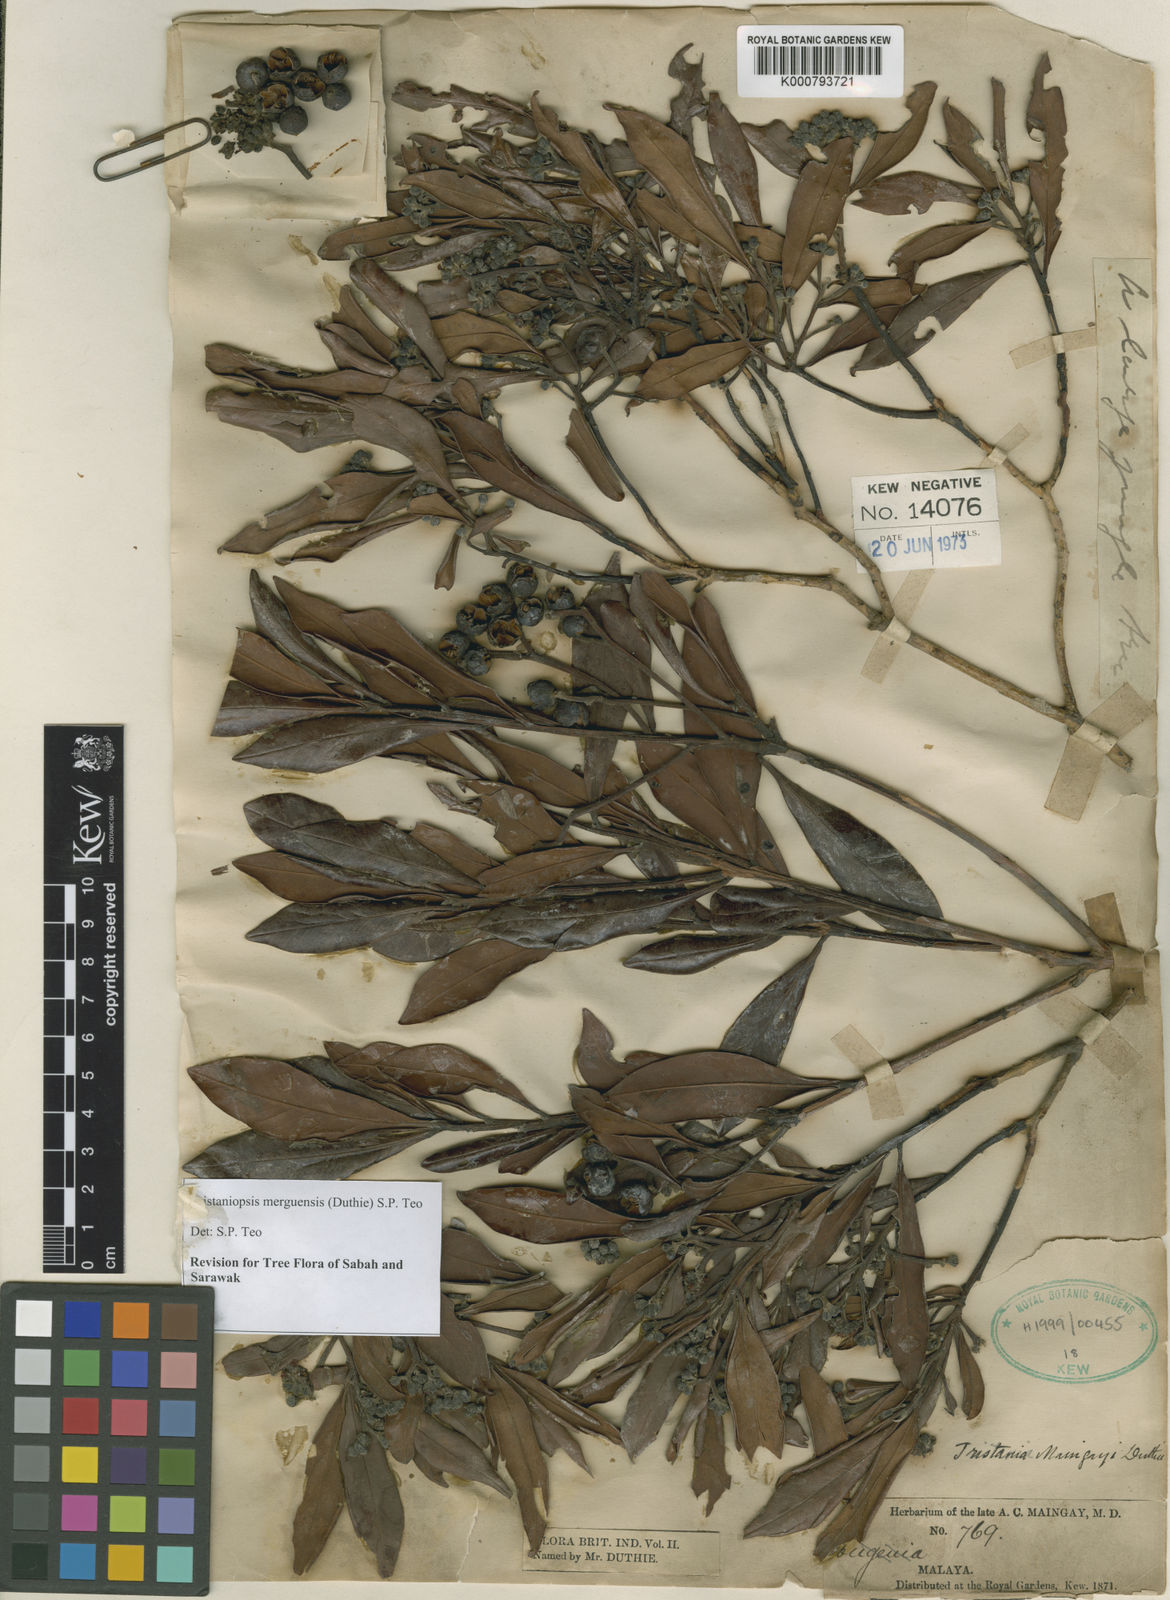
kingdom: Plantae
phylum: Tracheophyta
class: Magnoliopsida
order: Myrtales
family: Myrtaceae
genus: Tristaniopsis
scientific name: Tristaniopsis
